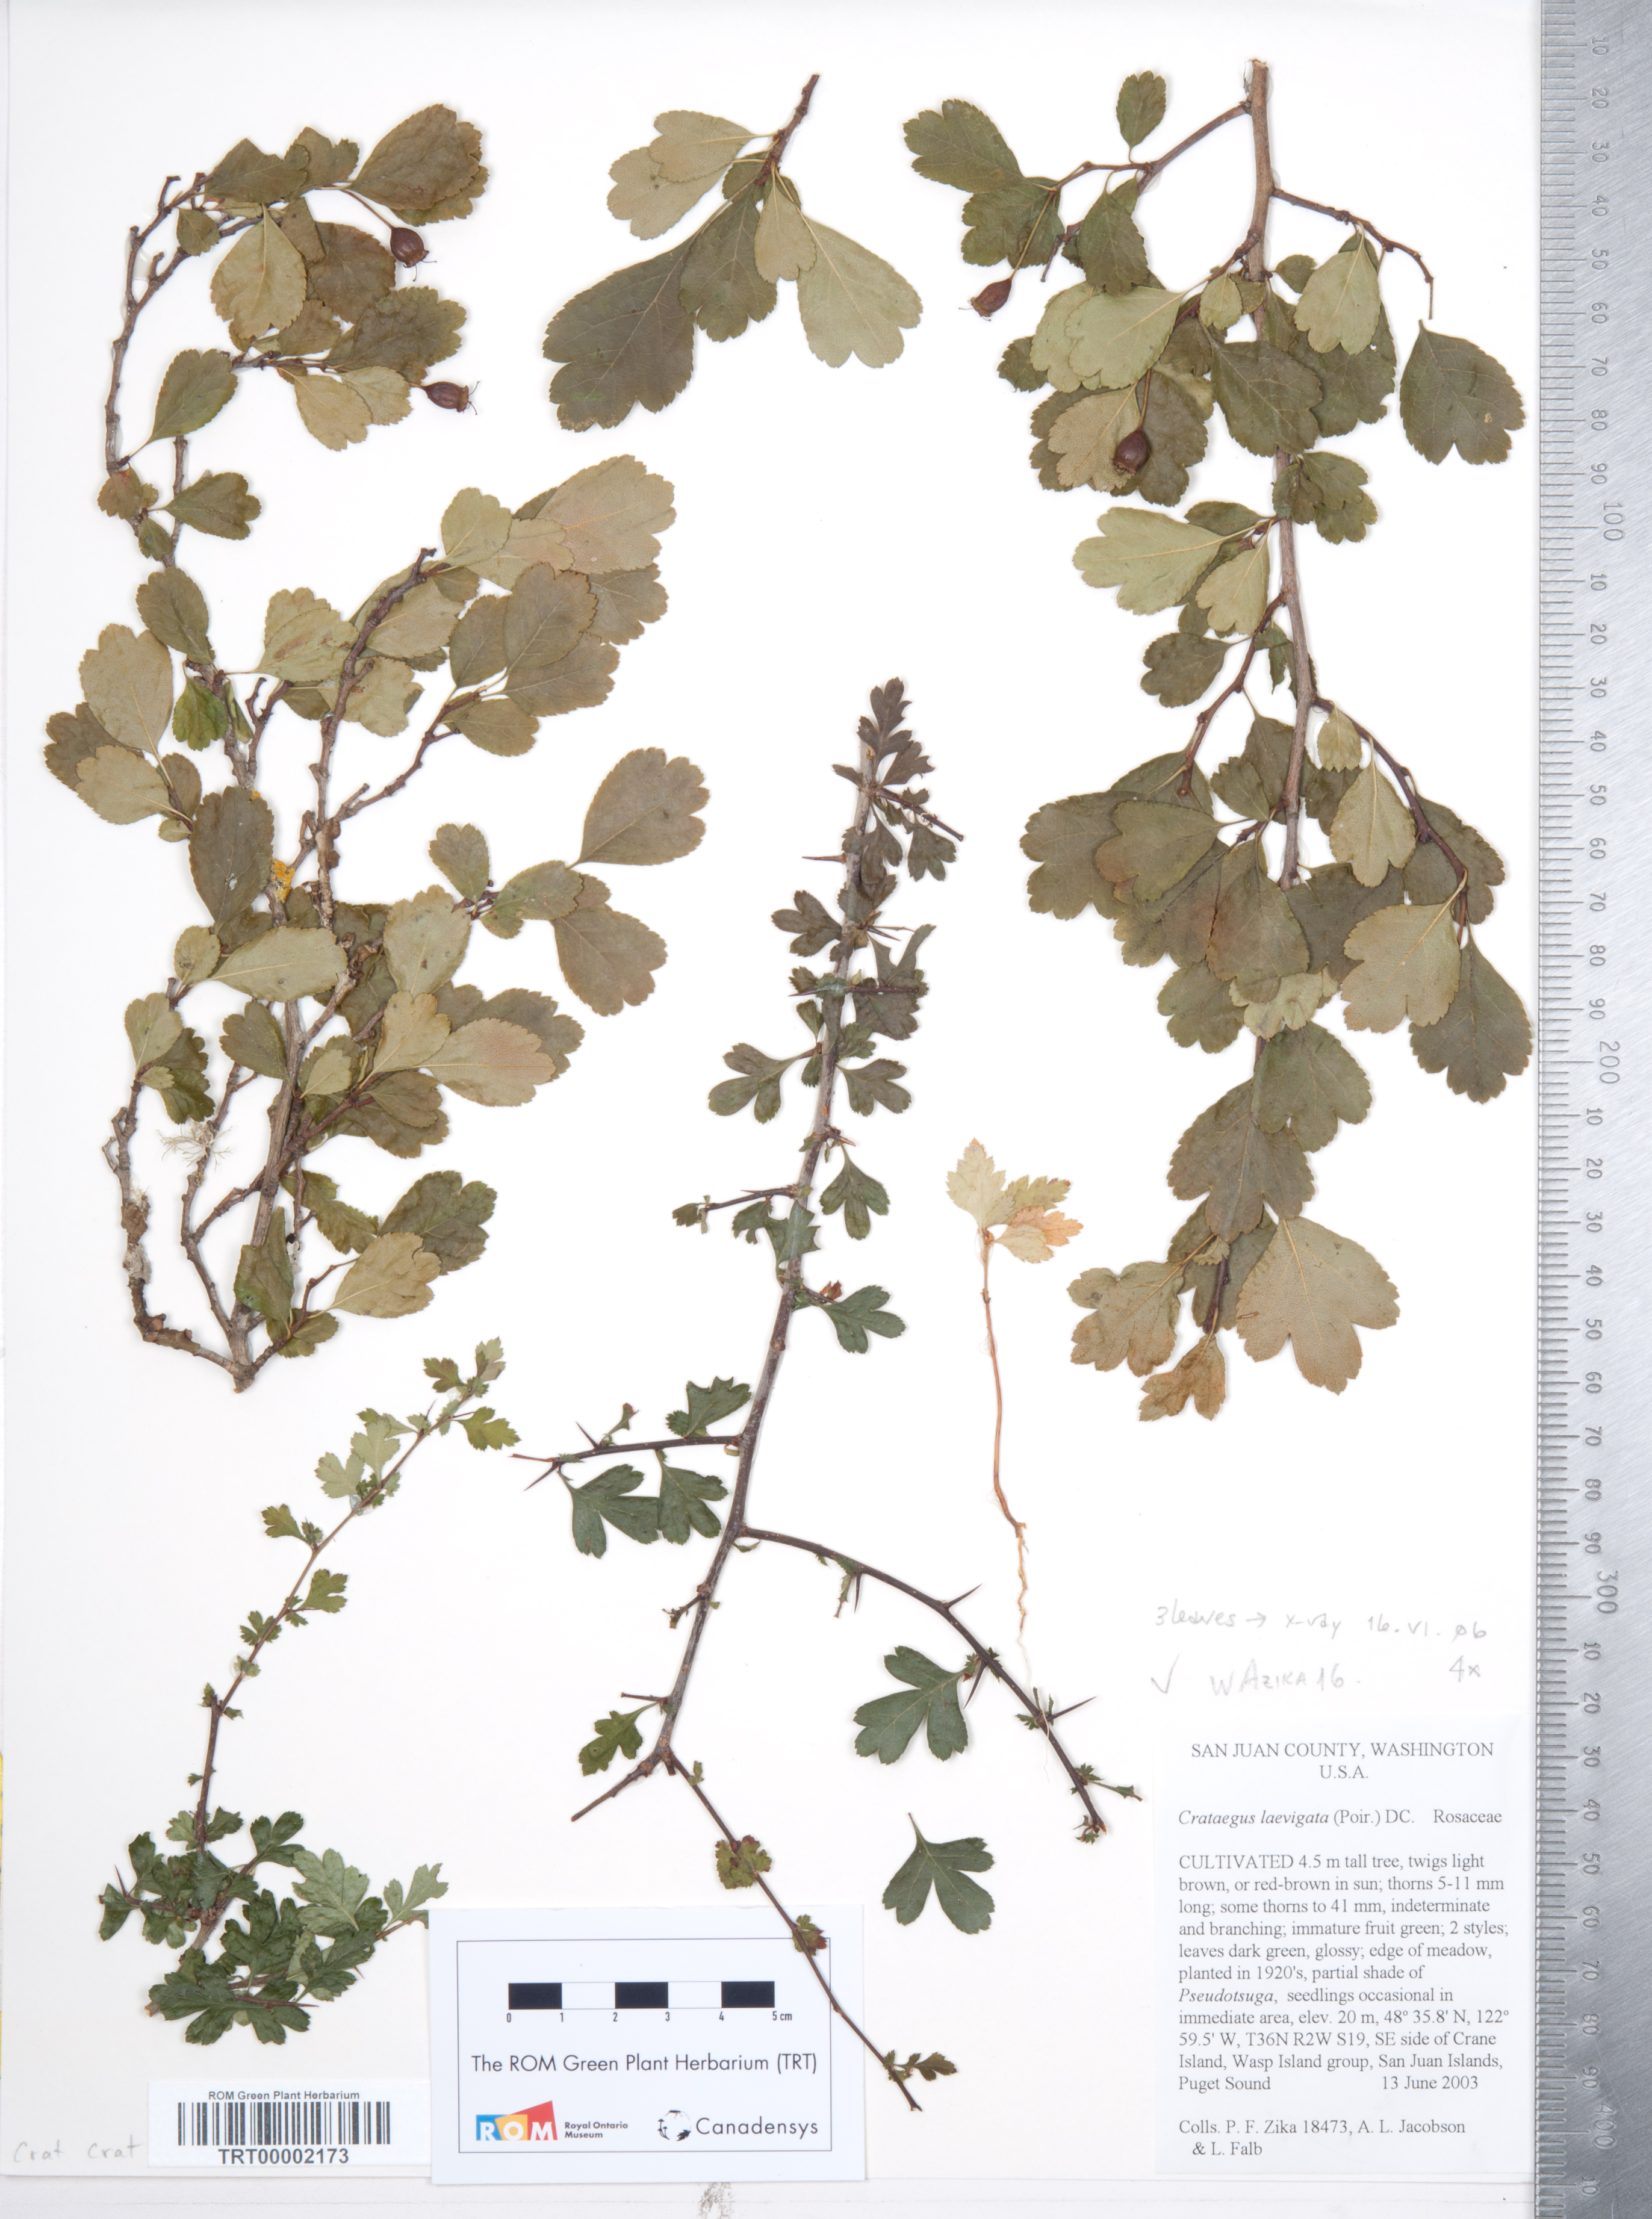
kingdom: Plantae
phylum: Tracheophyta
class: Magnoliopsida
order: Rosales
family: Rosaceae
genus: Crataegus
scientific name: Crataegus laevigata
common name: Midland hawthorn
